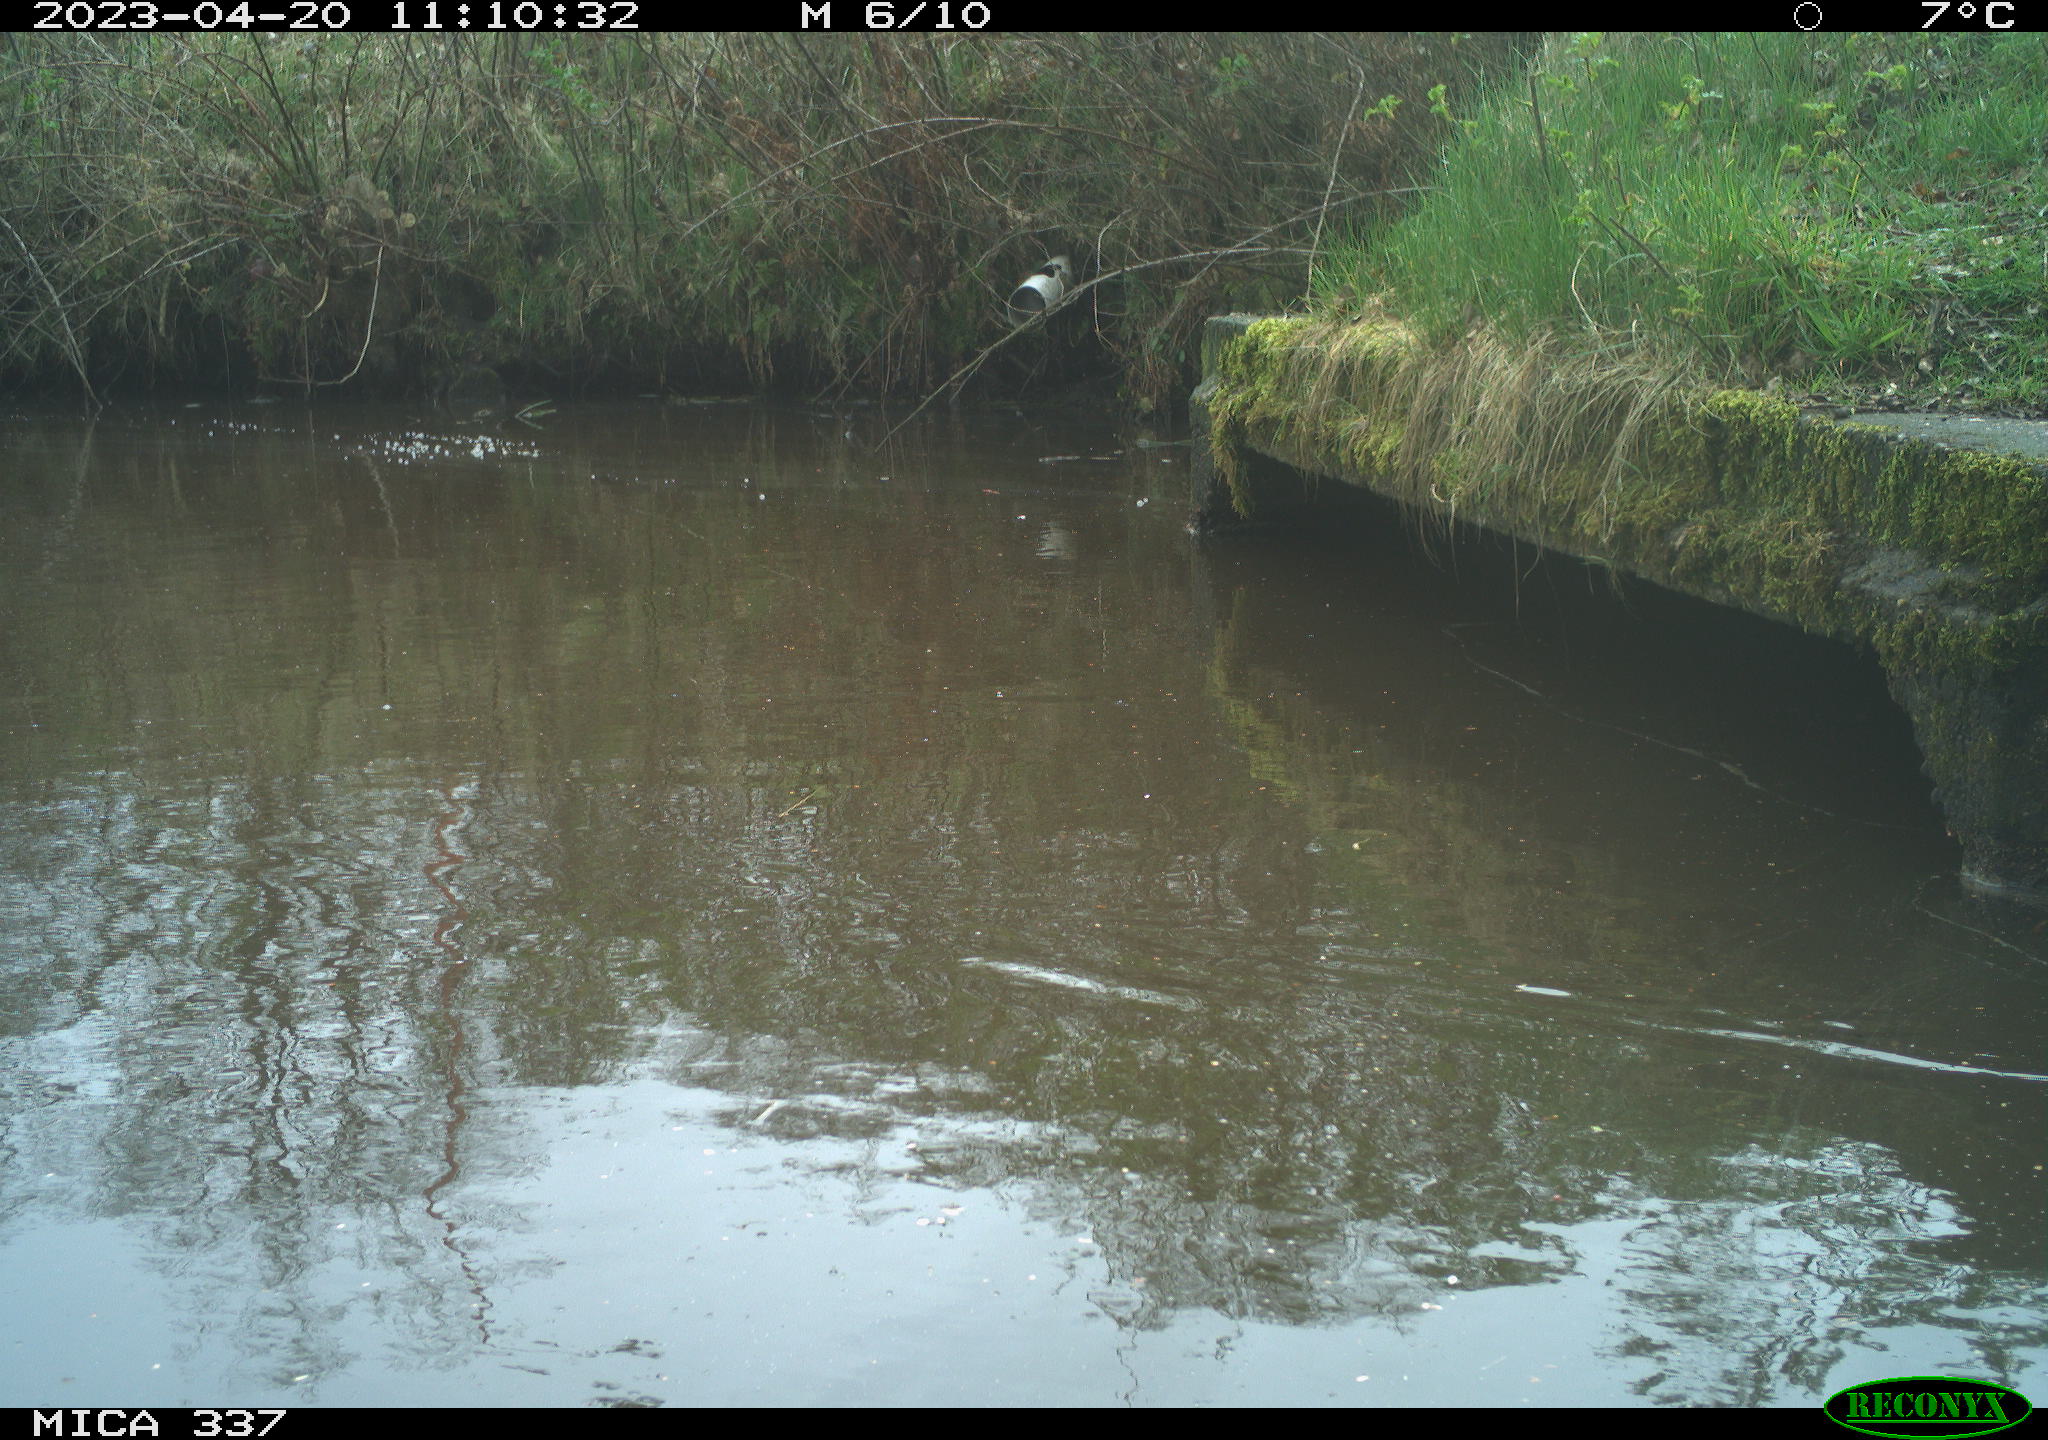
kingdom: Animalia
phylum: Chordata
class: Aves
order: Gruiformes
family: Rallidae
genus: Gallinula
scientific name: Gallinula chloropus
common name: Common moorhen
